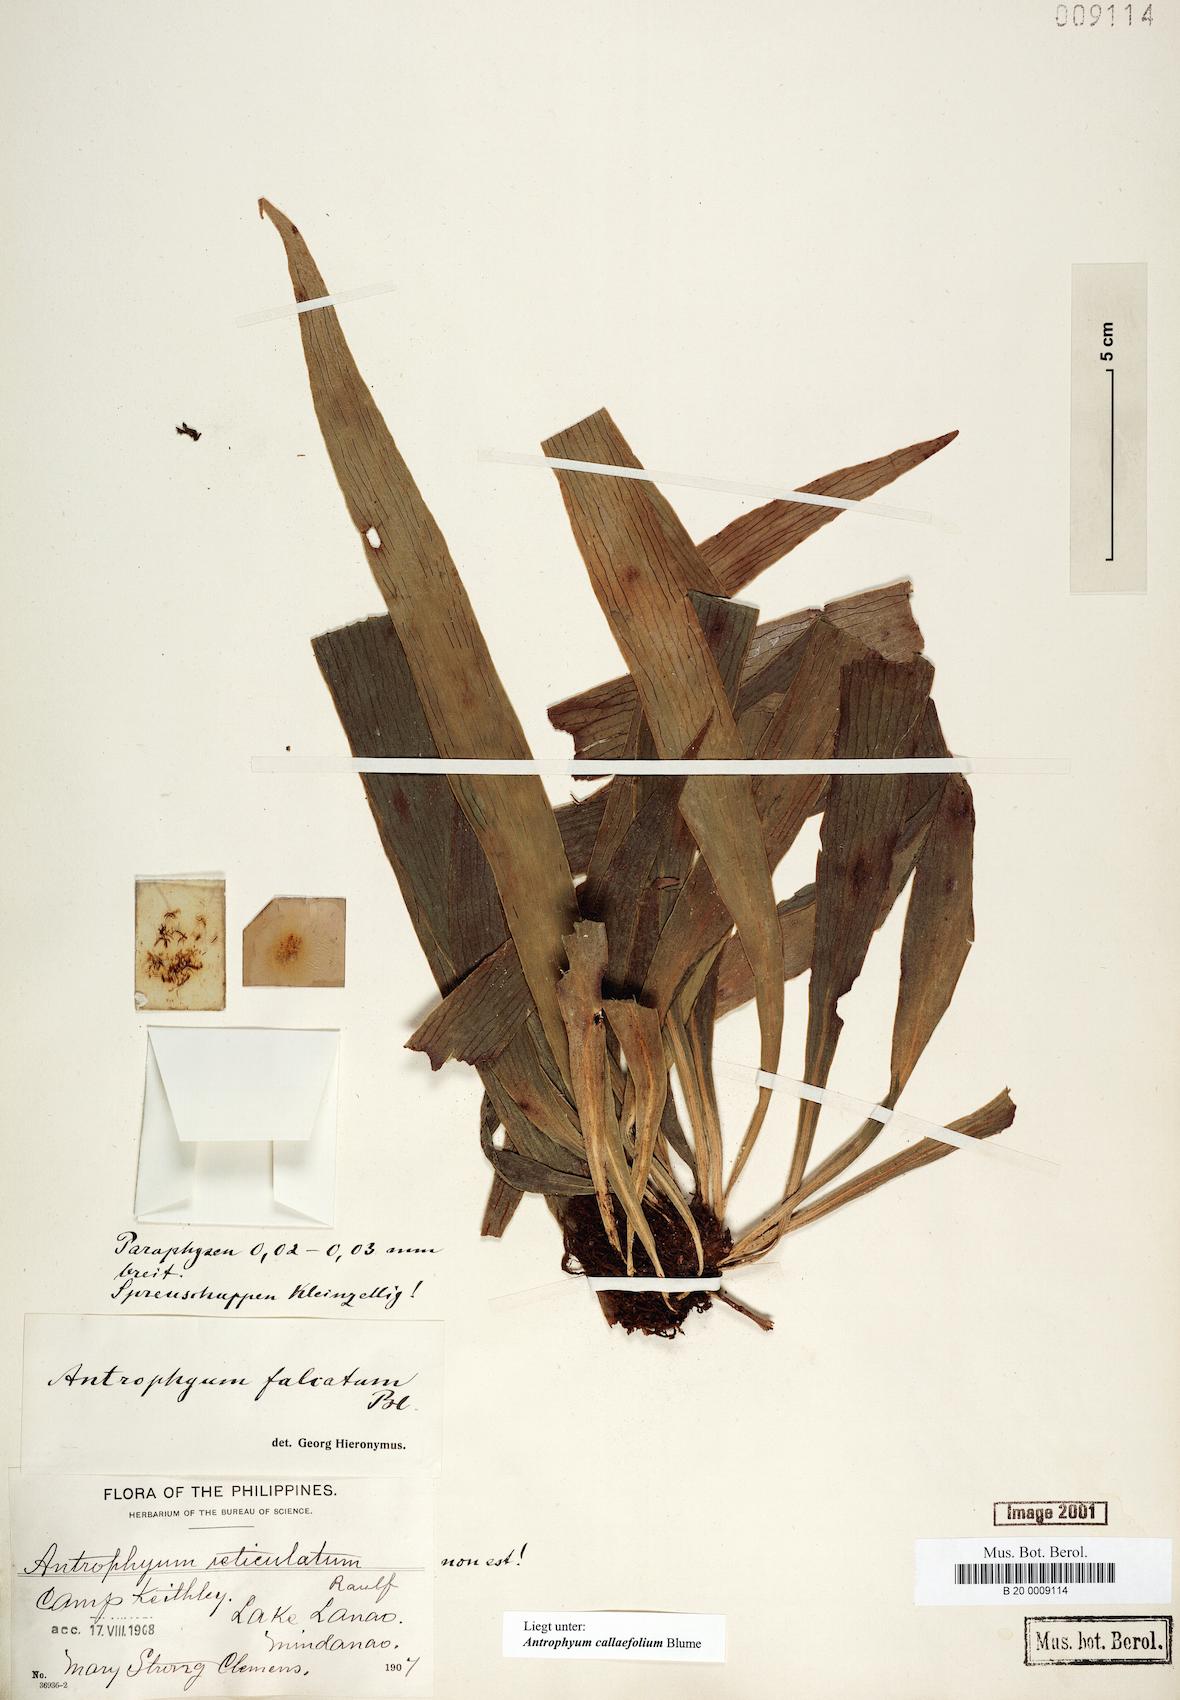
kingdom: Plantae
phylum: Tracheophyta
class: Polypodiopsida
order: Polypodiales
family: Pteridaceae
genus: Antrophyum
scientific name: Antrophyum callifolium
